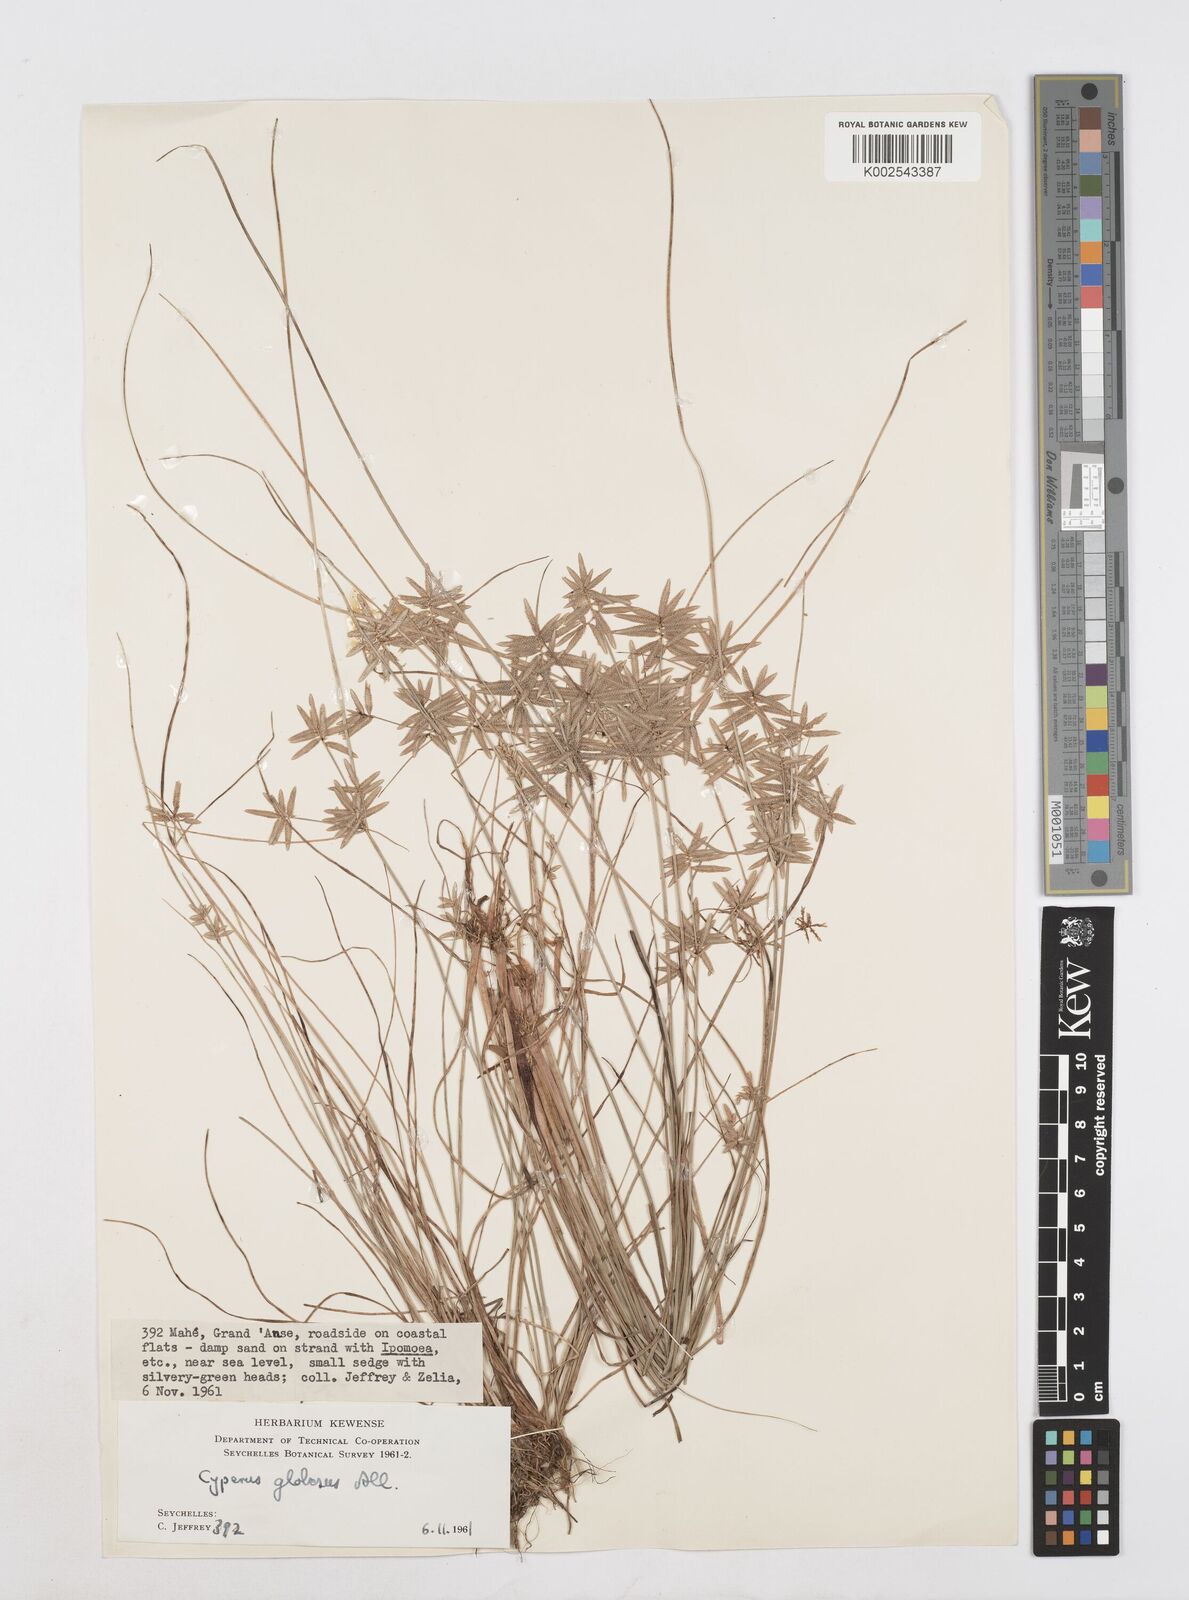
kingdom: Plantae
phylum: Tracheophyta
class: Liliopsida
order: Poales
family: Cyperaceae
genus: Cyperus
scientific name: Cyperus flavidus
